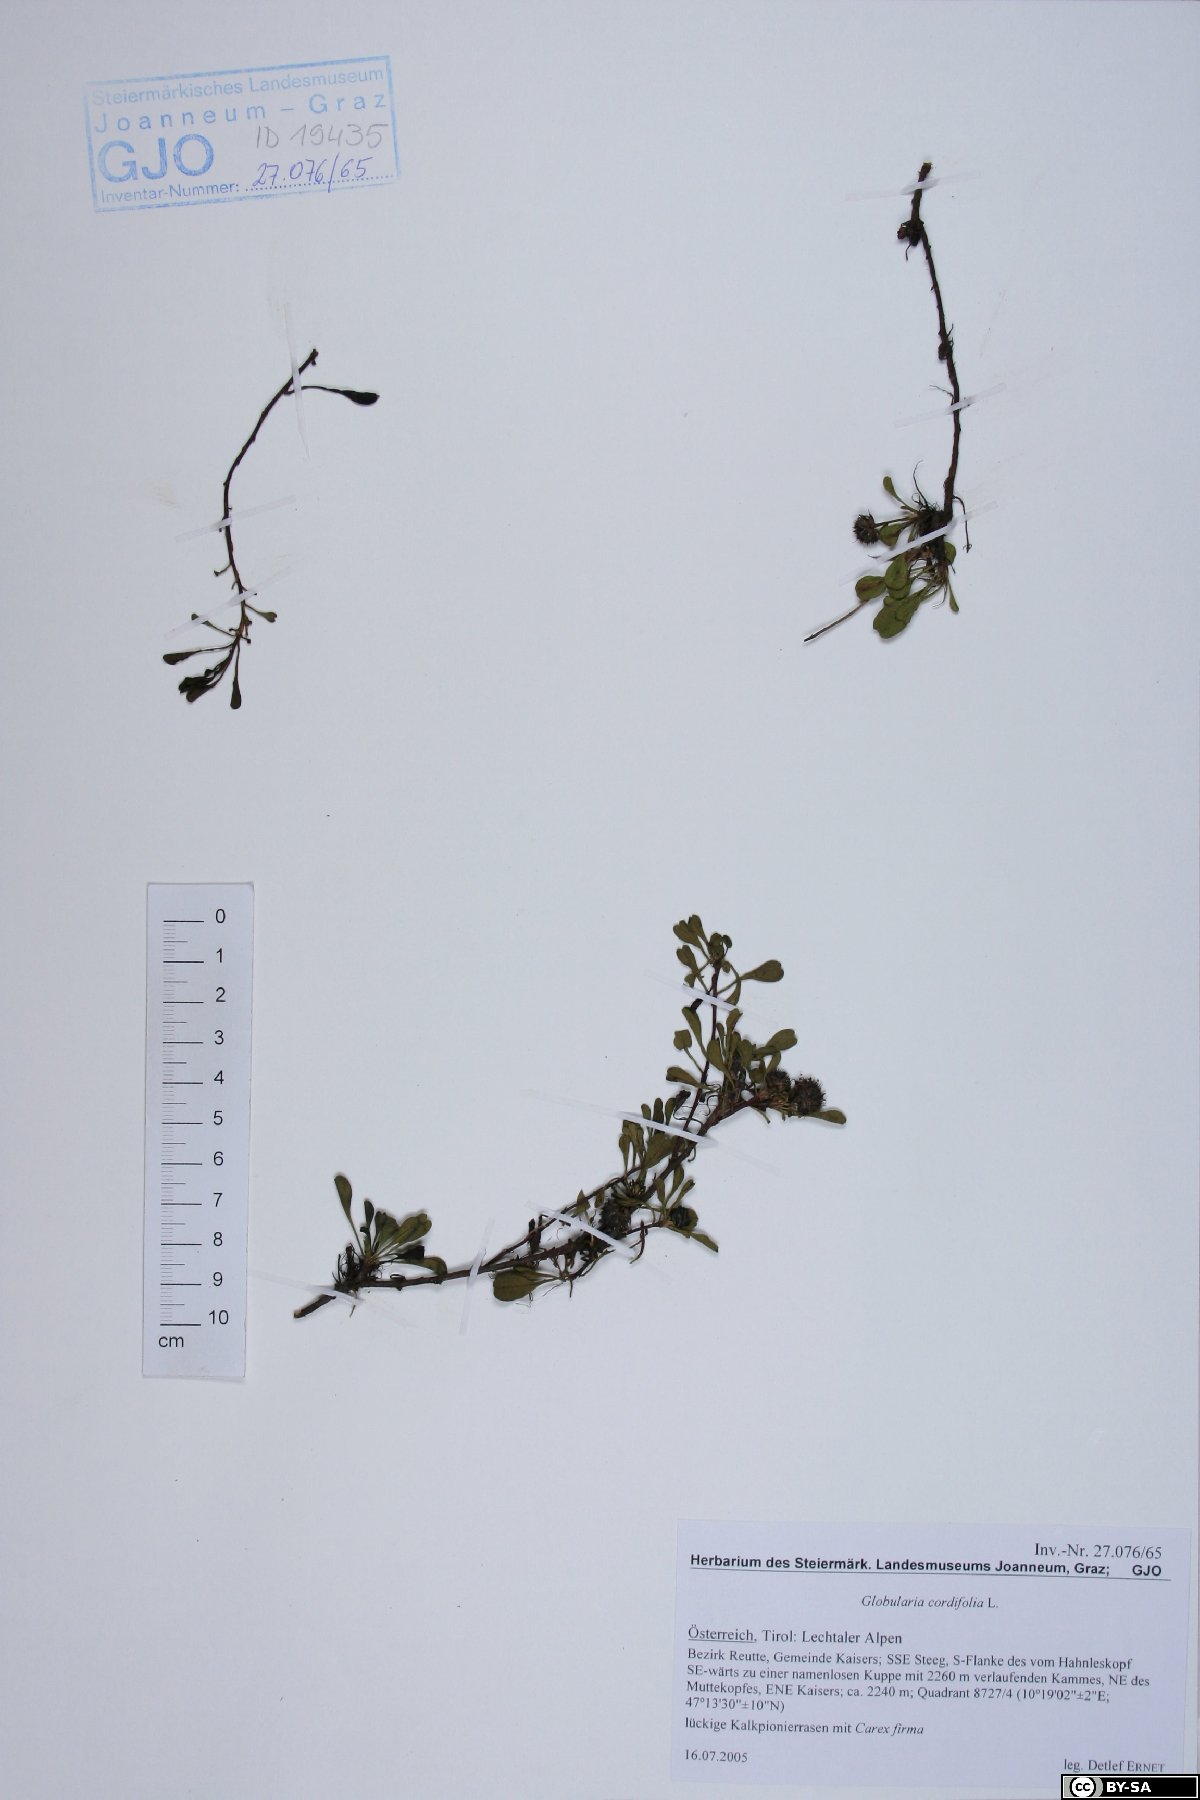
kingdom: Plantae
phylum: Tracheophyta
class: Magnoliopsida
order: Lamiales
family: Plantaginaceae
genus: Globularia
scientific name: Globularia cordifolia
